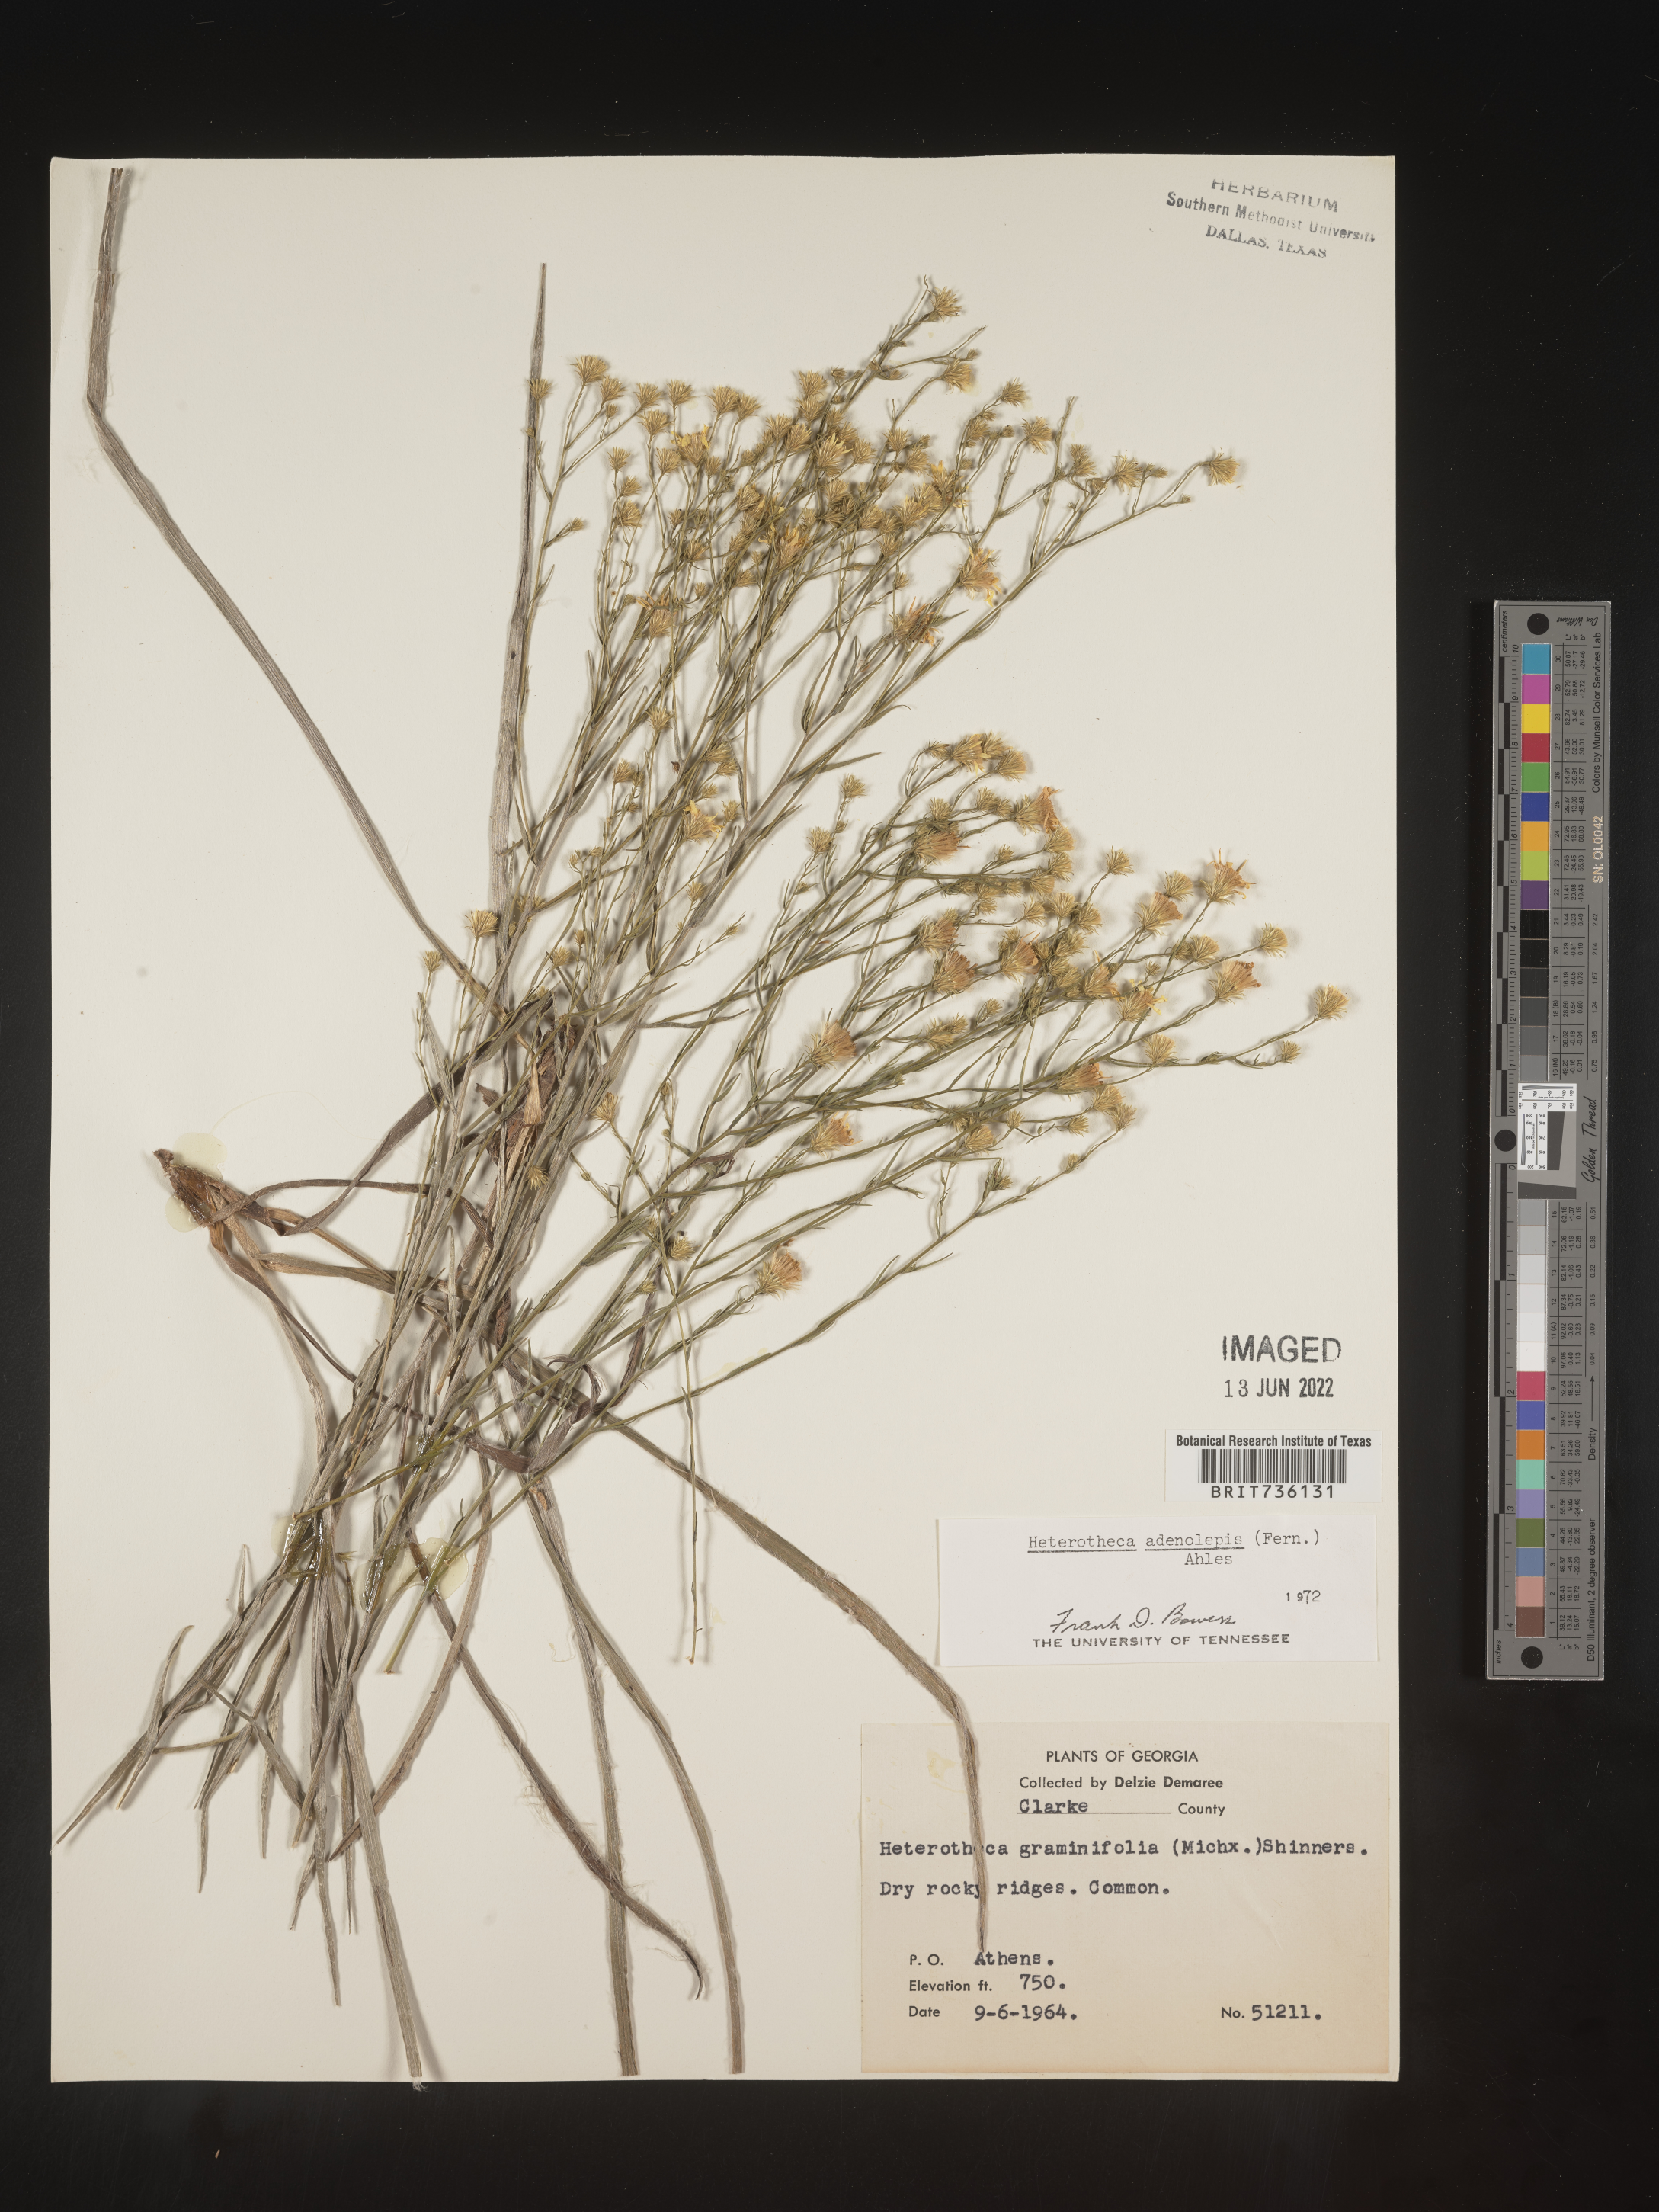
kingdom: Plantae
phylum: Tracheophyta
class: Magnoliopsida
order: Asterales
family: Asteraceae
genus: Pityopsis
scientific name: Pityopsis aspera
